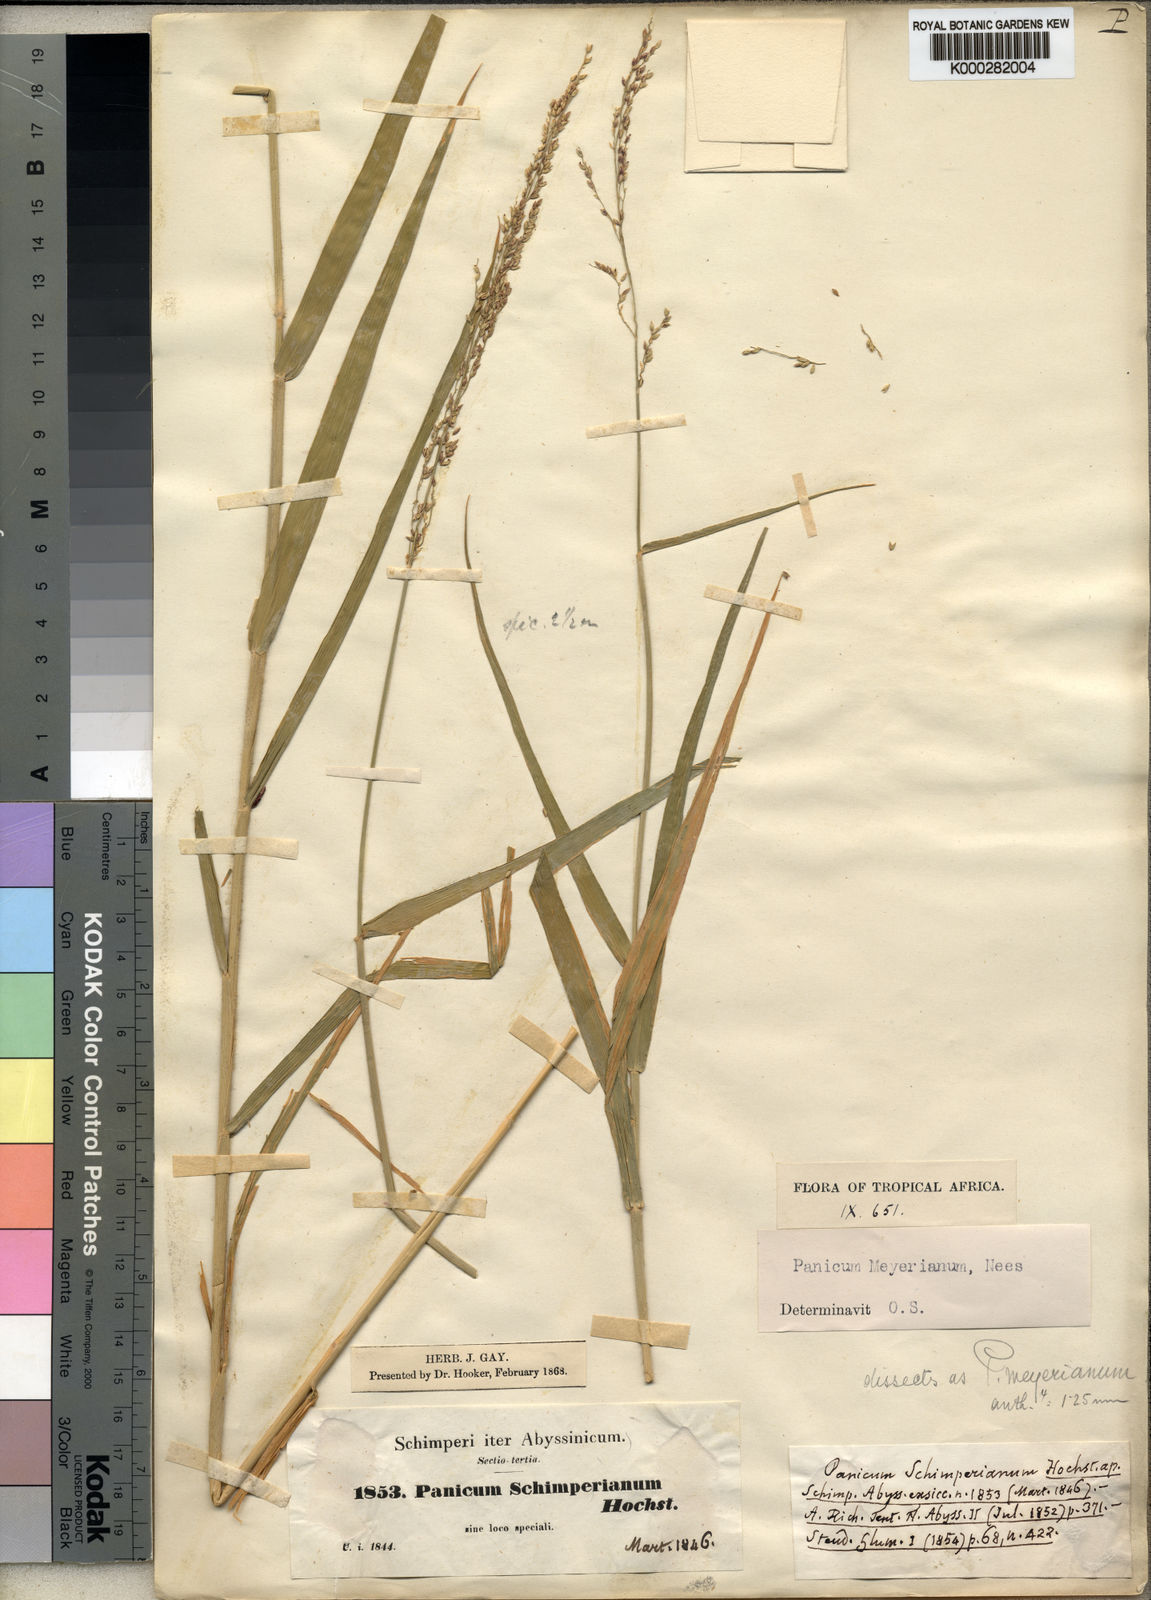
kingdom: Plantae
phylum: Tracheophyta
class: Liliopsida
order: Poales
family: Poaceae
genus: Eriochloa
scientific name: Eriochloa meyeriana
